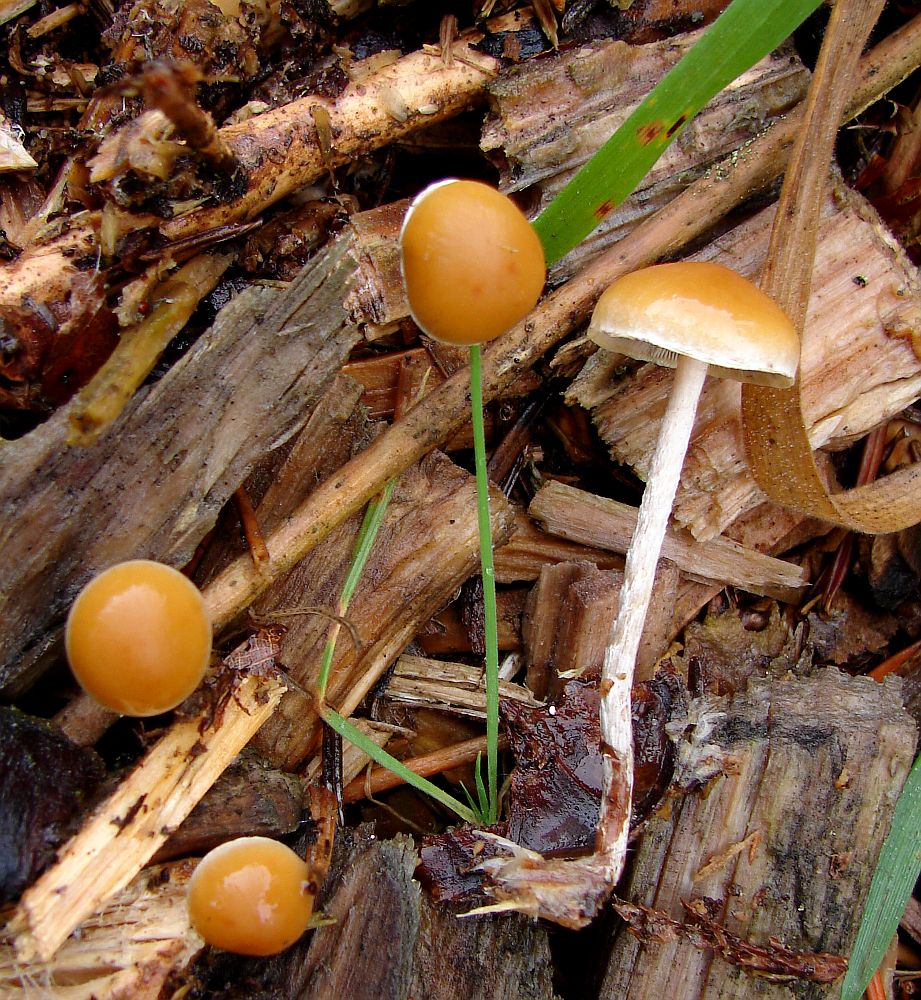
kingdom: Fungi
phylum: Basidiomycota
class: Agaricomycetes
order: Agaricales
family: Strophariaceae
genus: Hypholoma
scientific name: Hypholoma marginatum
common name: enlig svovlhat
